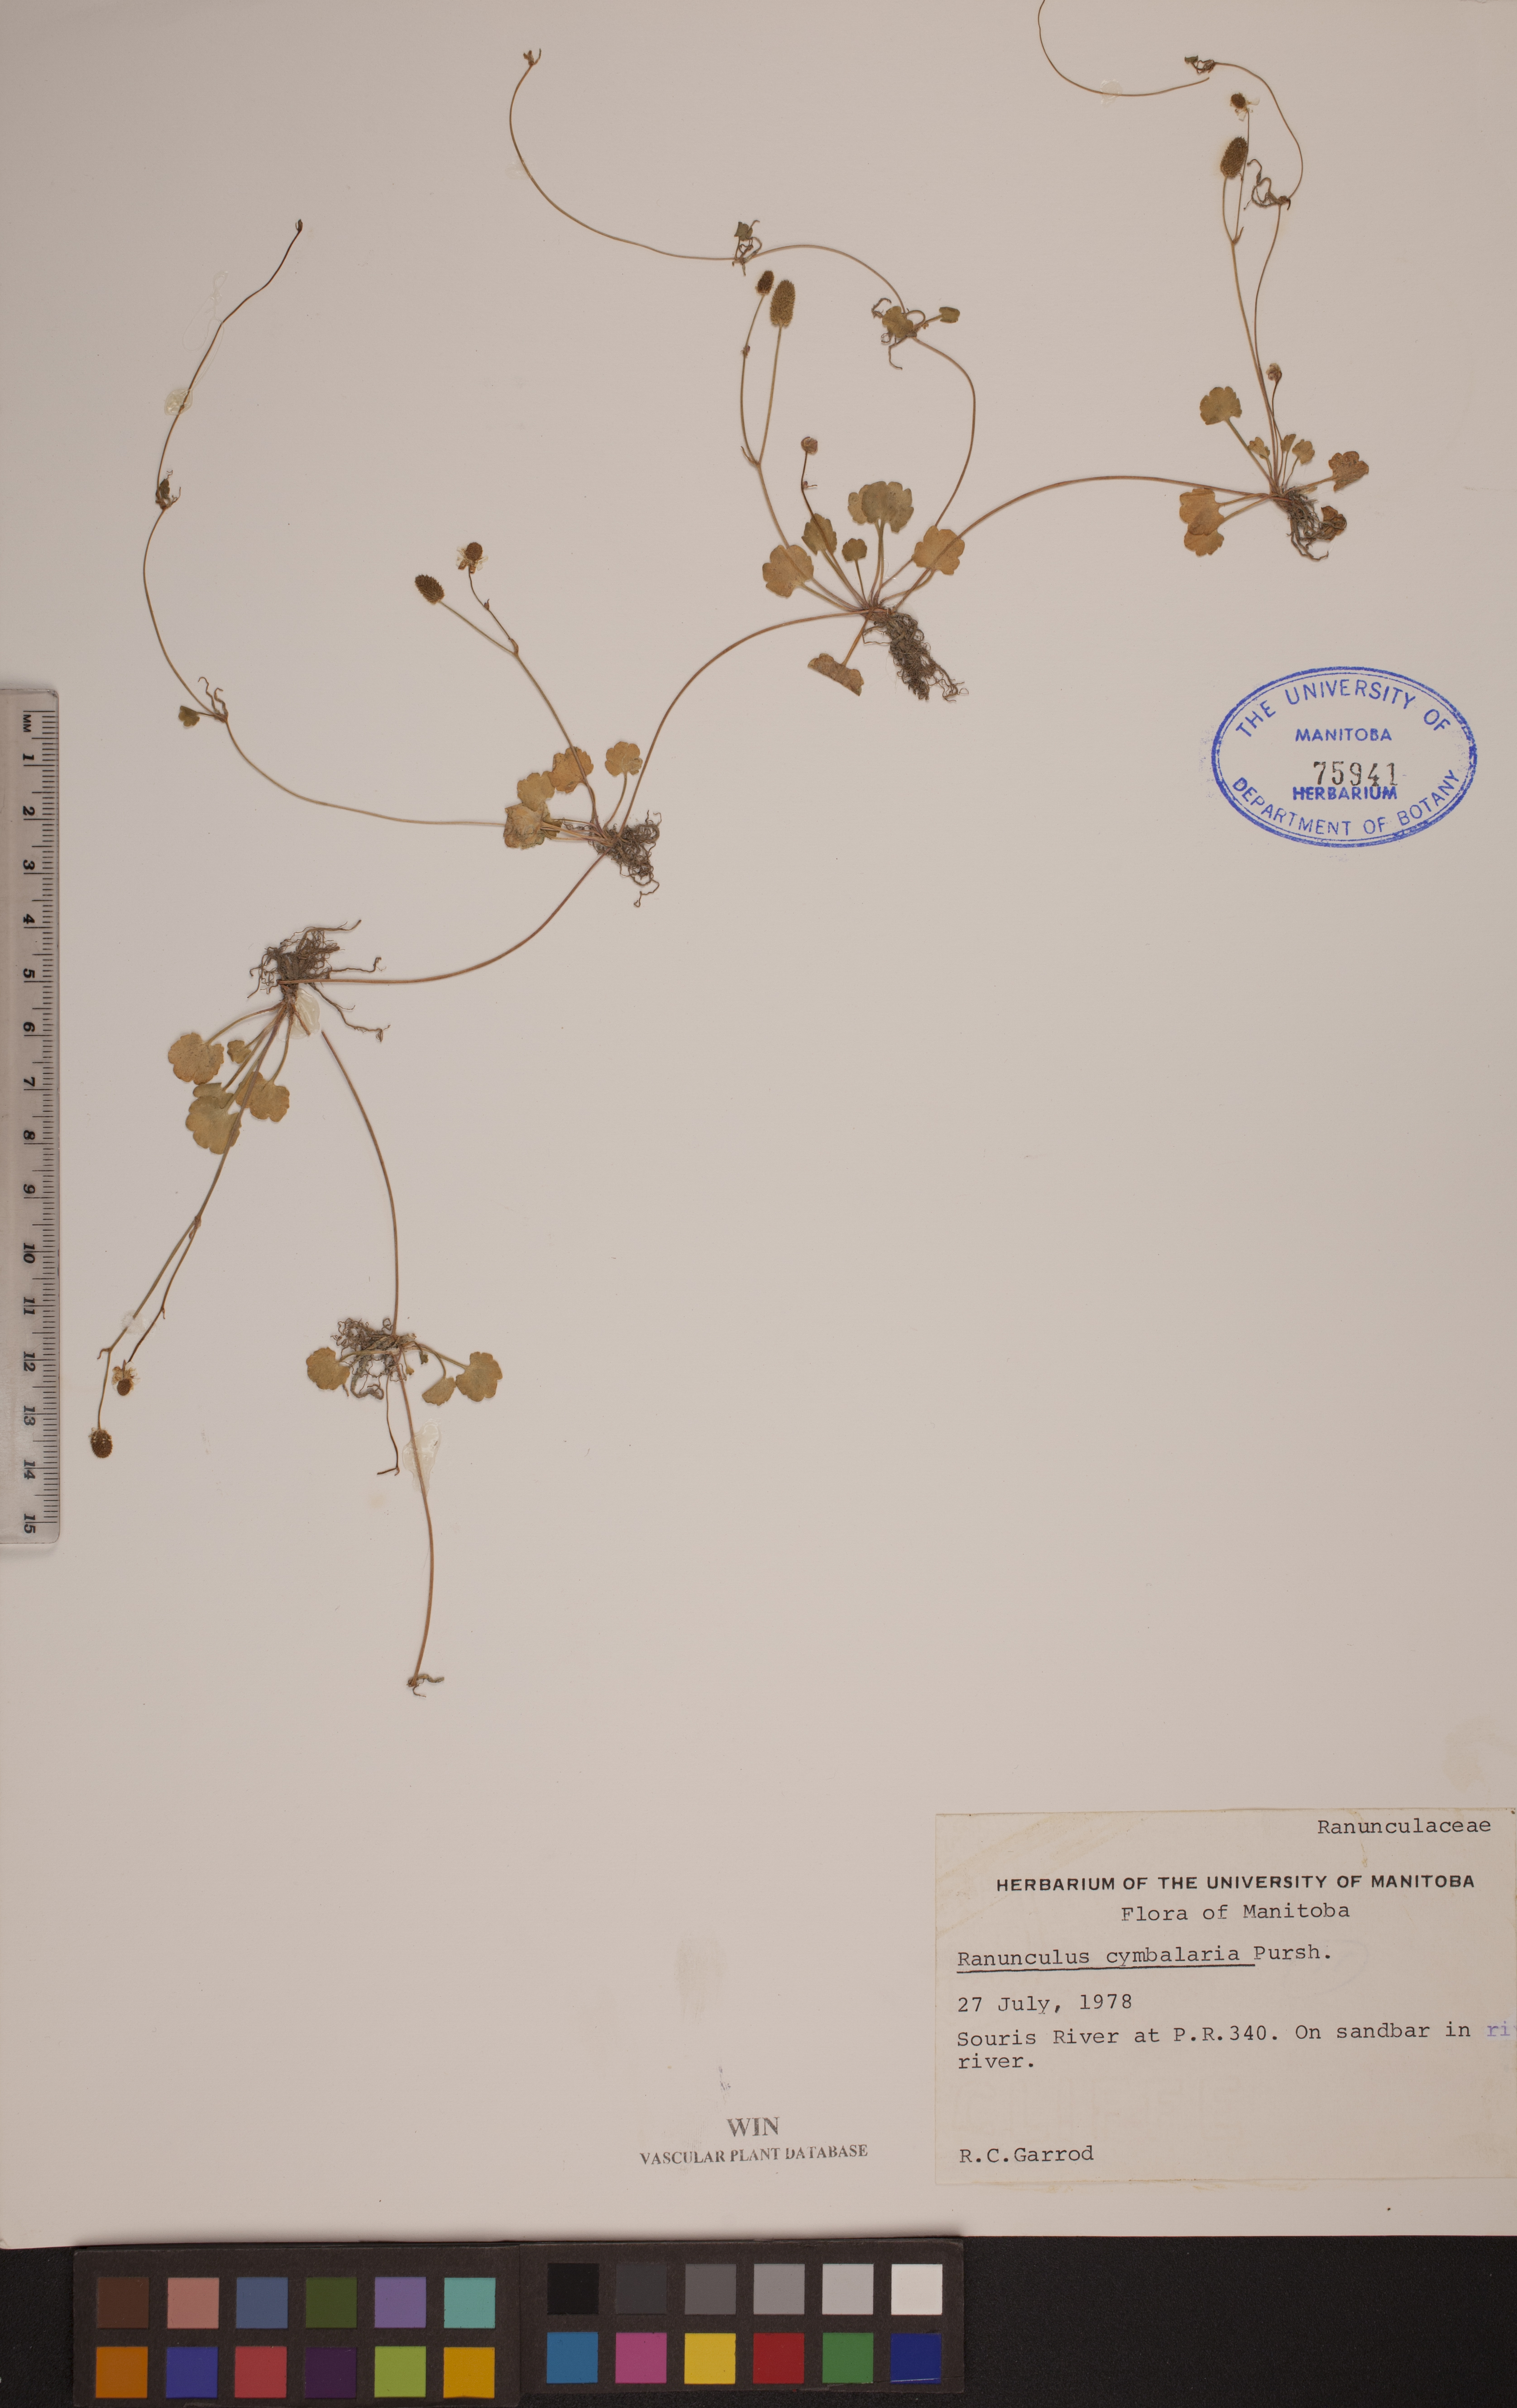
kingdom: Plantae
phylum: Tracheophyta
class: Magnoliopsida
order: Ranunculales
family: Ranunculaceae
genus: Halerpestes
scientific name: Halerpestes cymbalaria
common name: Seaside crowfoot
